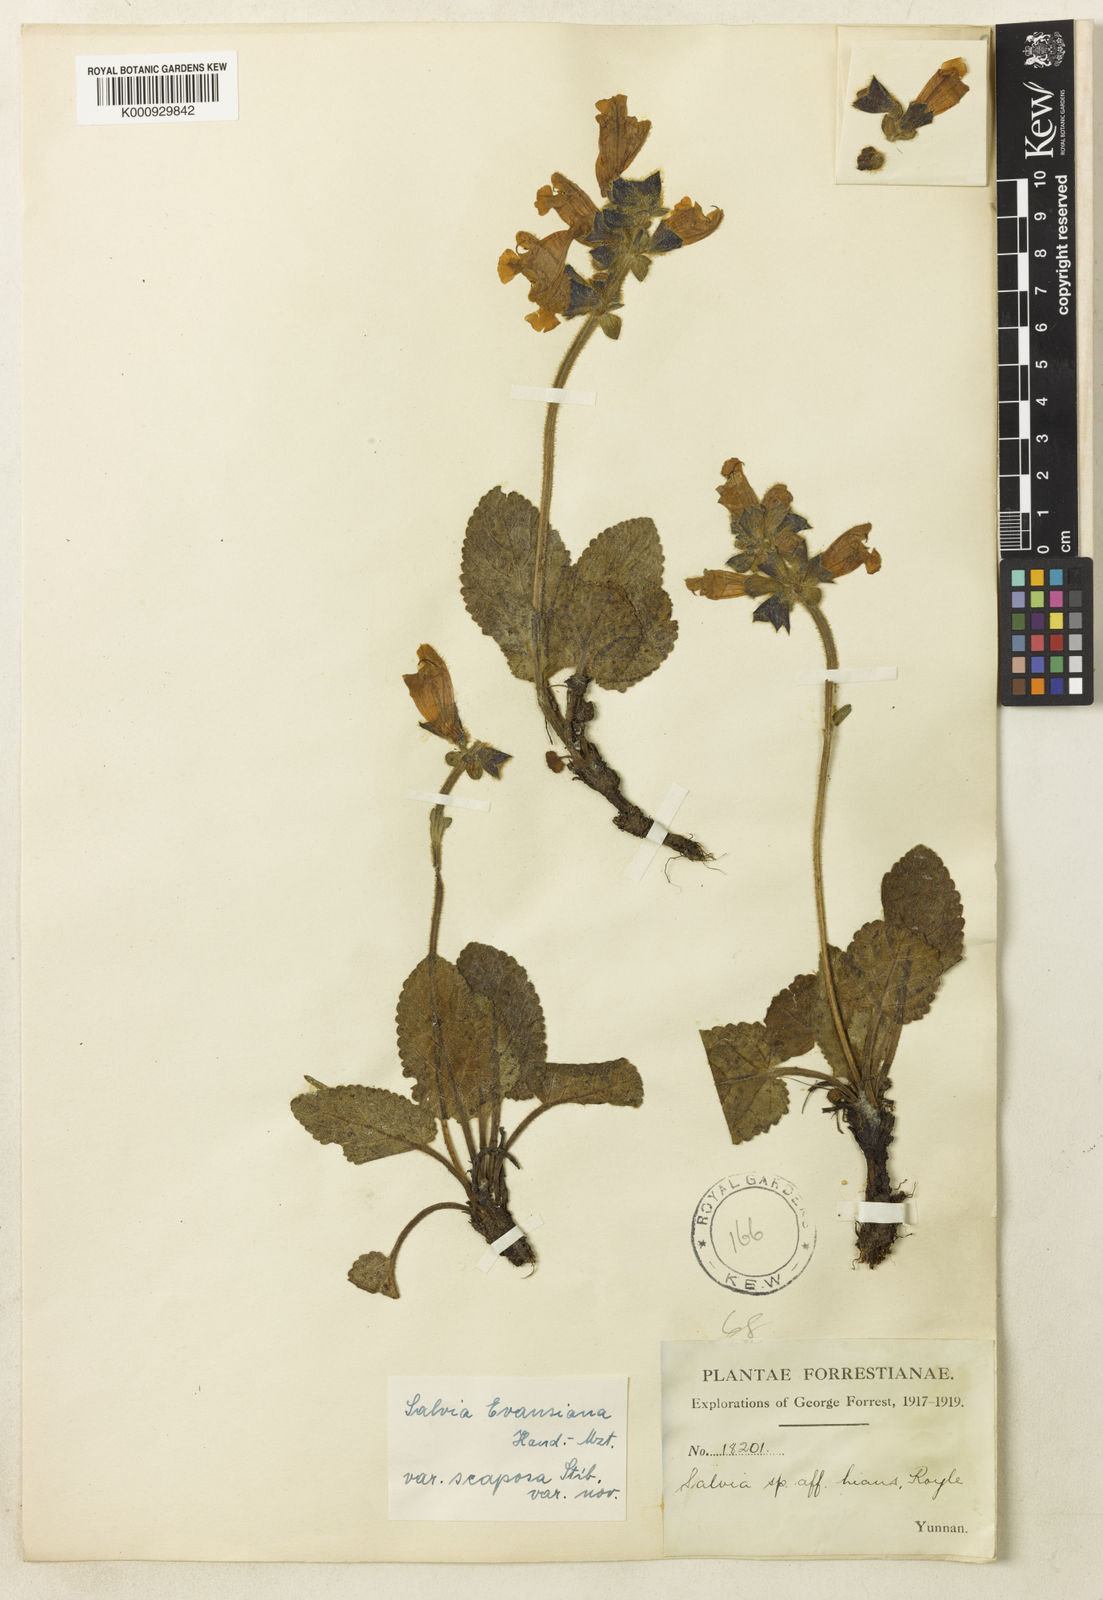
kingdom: Plantae
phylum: Tracheophyta
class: Magnoliopsida
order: Lamiales
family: Lamiaceae
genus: Salvia
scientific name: Salvia evansiana
